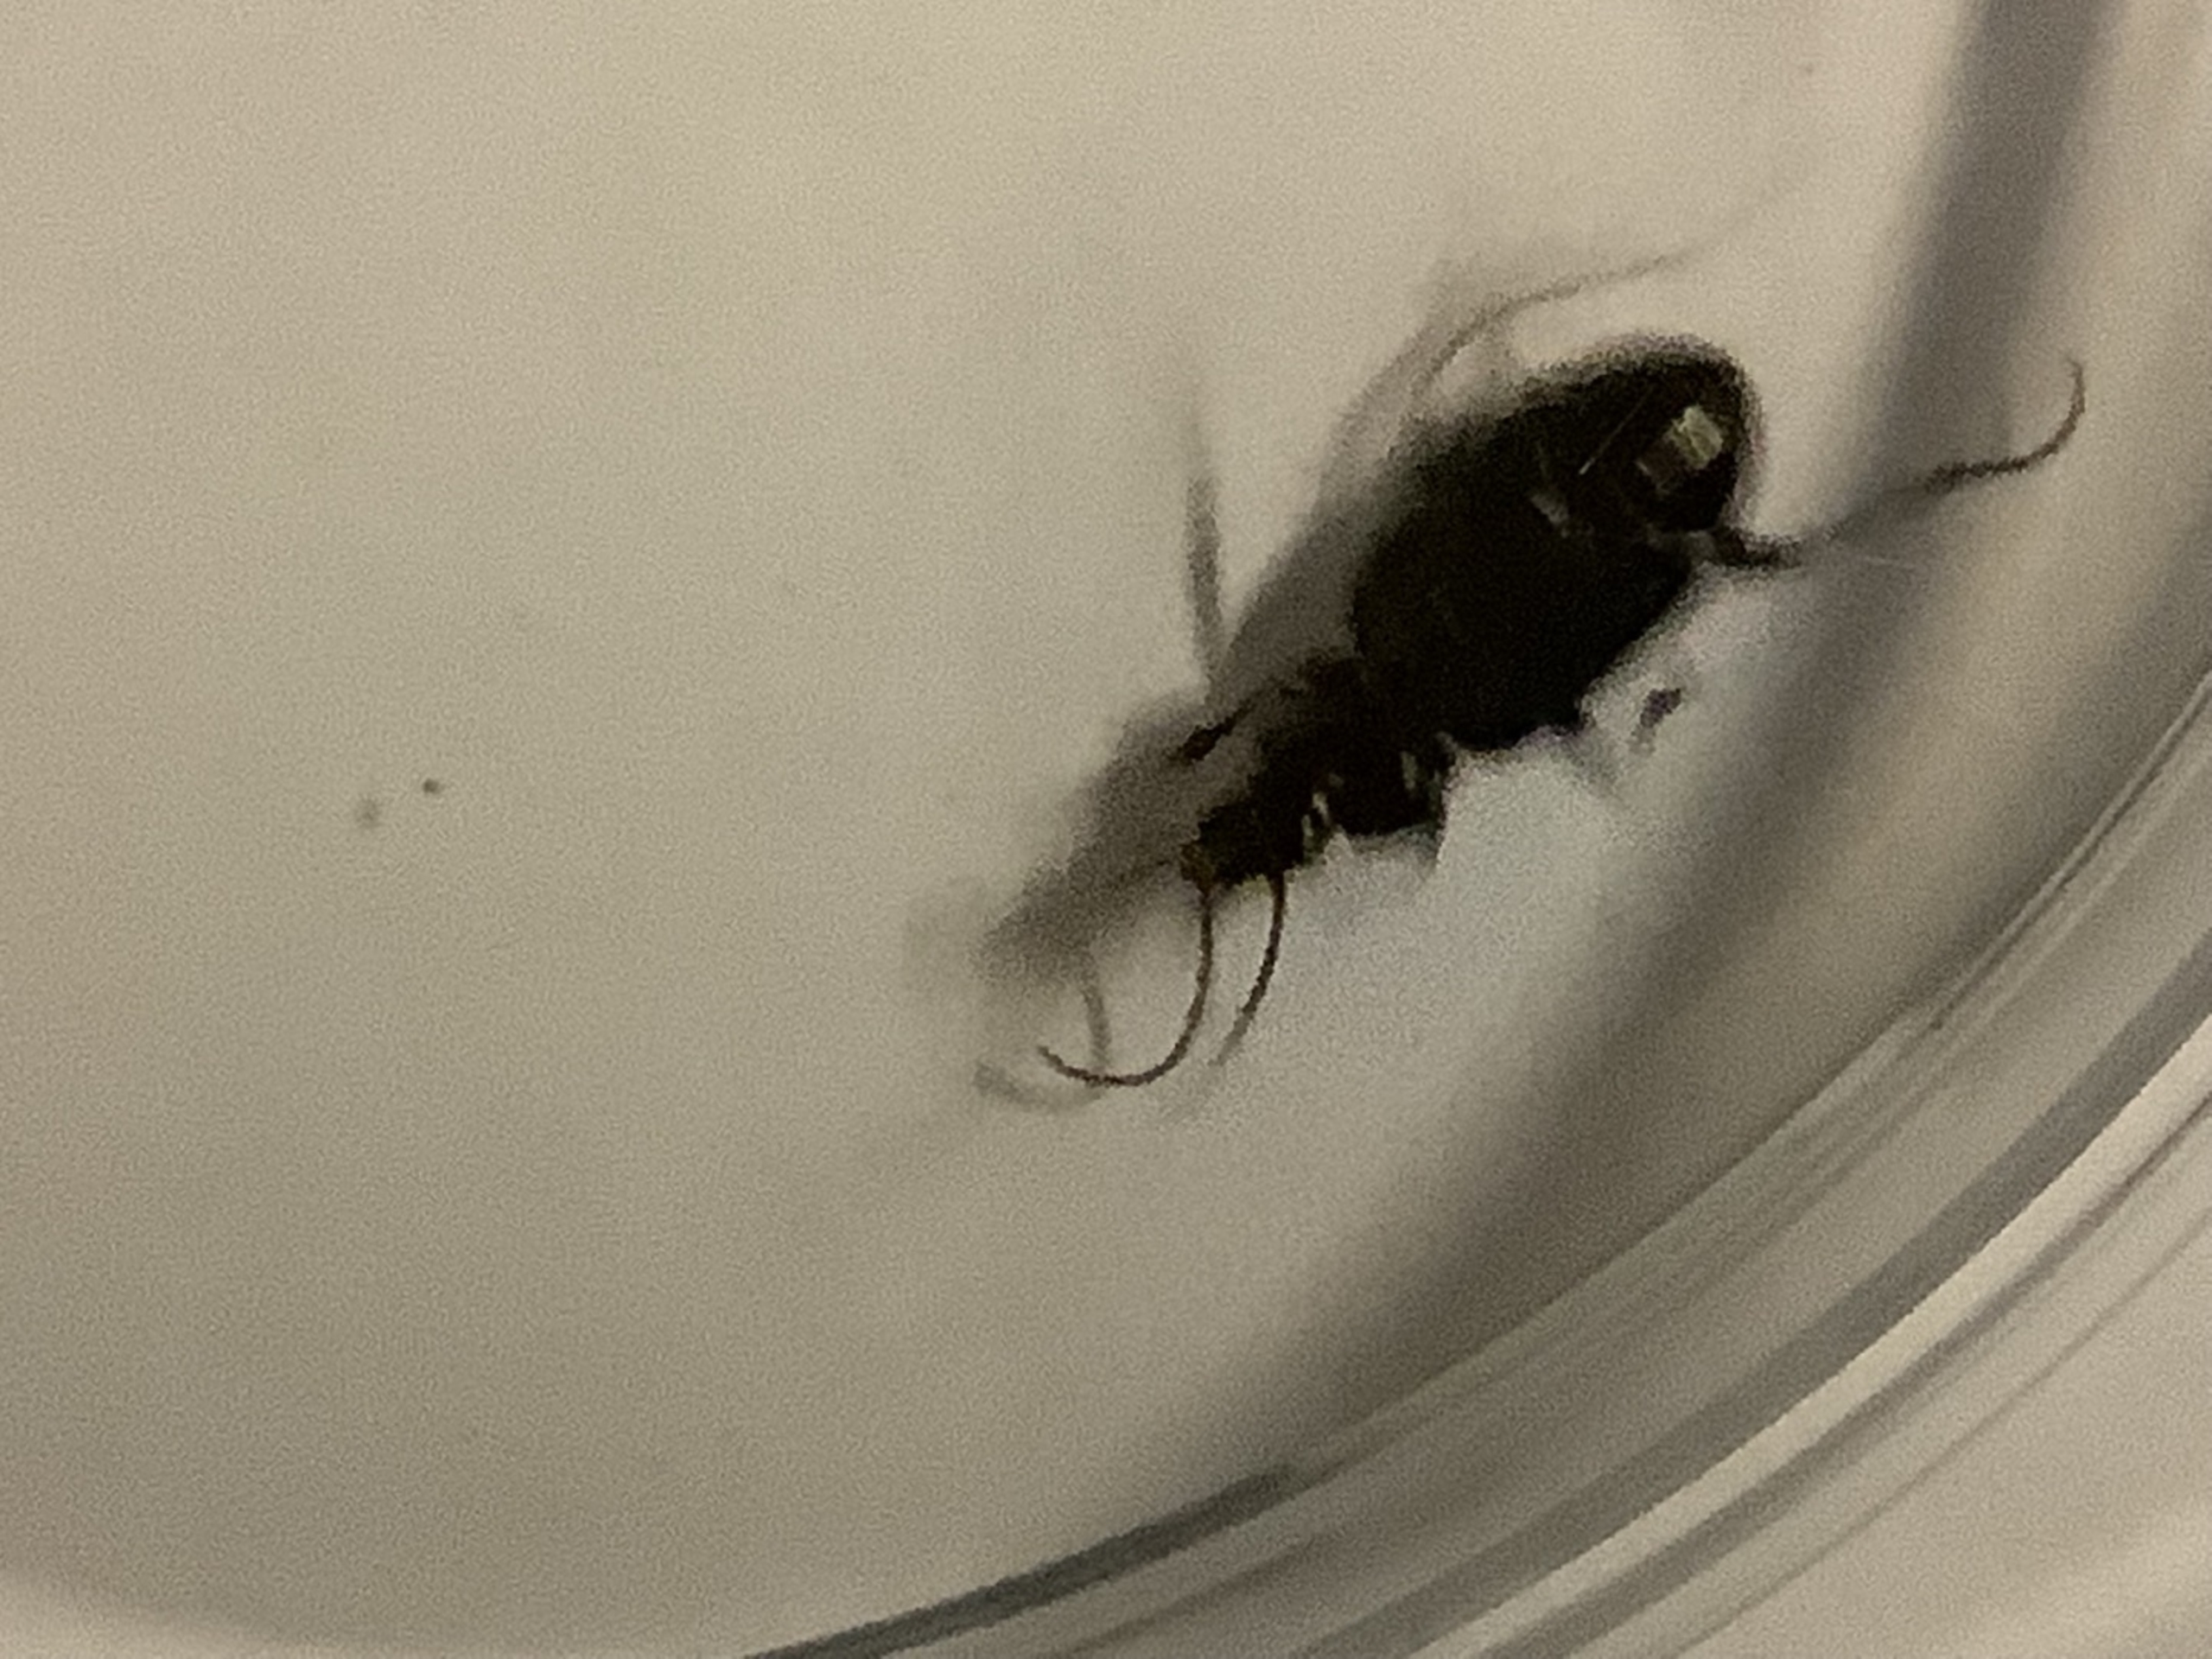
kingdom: Animalia
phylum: Arthropoda
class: Insecta
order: Coleoptera
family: Carabidae
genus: Nebria
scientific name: Nebria
